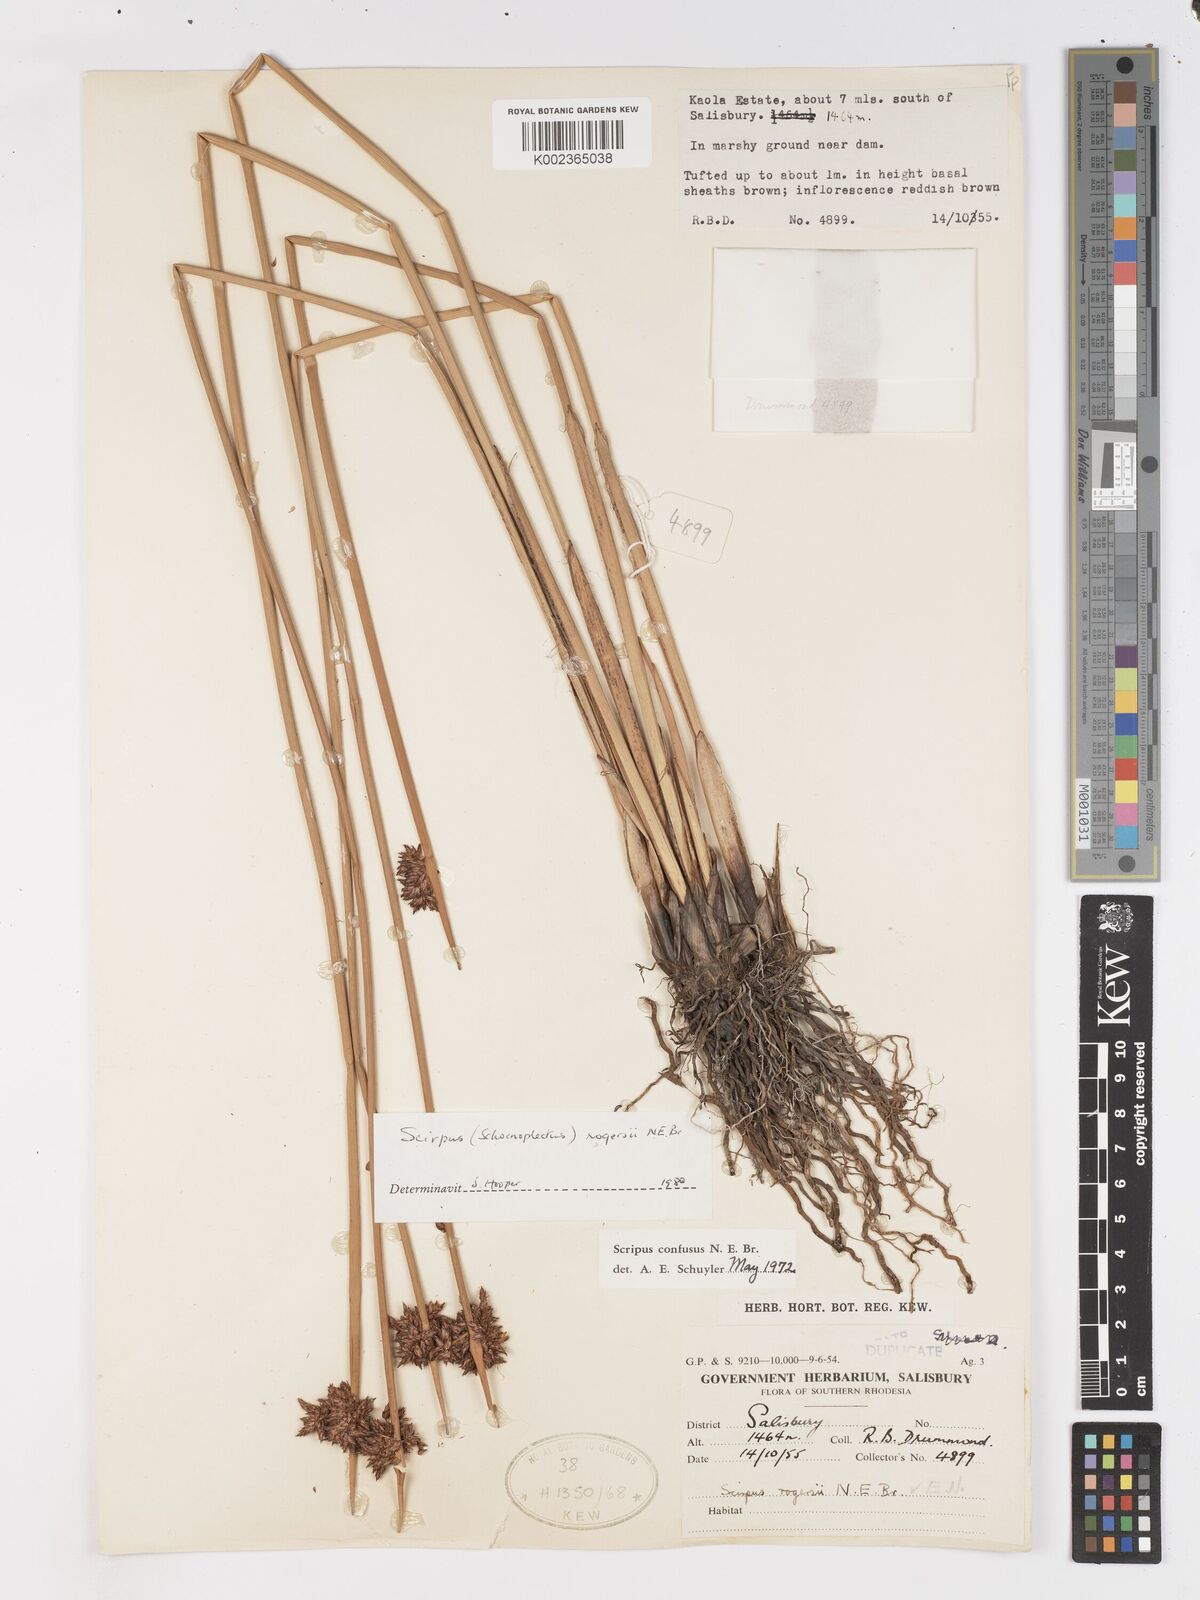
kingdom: Plantae
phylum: Tracheophyta
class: Liliopsida
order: Poales
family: Cyperaceae
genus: Schoenoplectiella
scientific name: Schoenoplectiella rogersii
